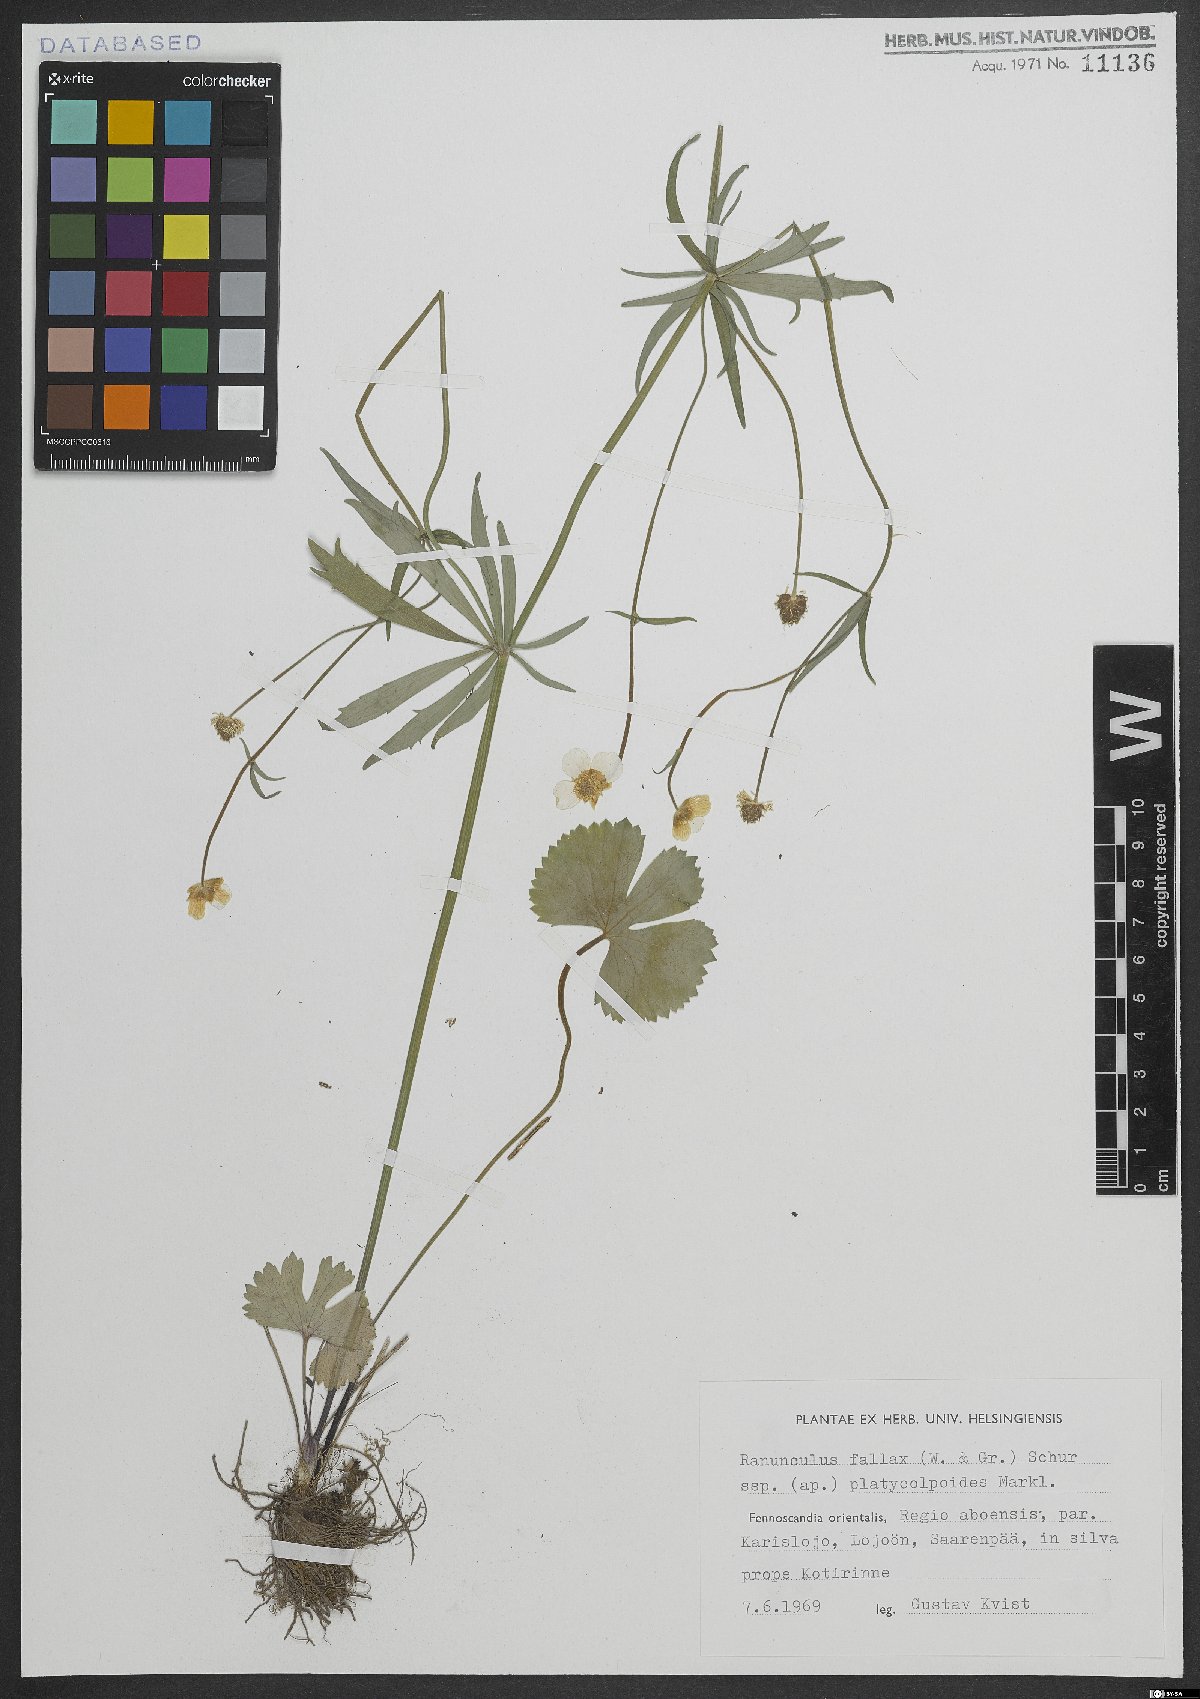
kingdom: Plantae
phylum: Tracheophyta
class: Magnoliopsida
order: Ranunculales
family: Ranunculaceae
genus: Ranunculus
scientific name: Ranunculus fallax
